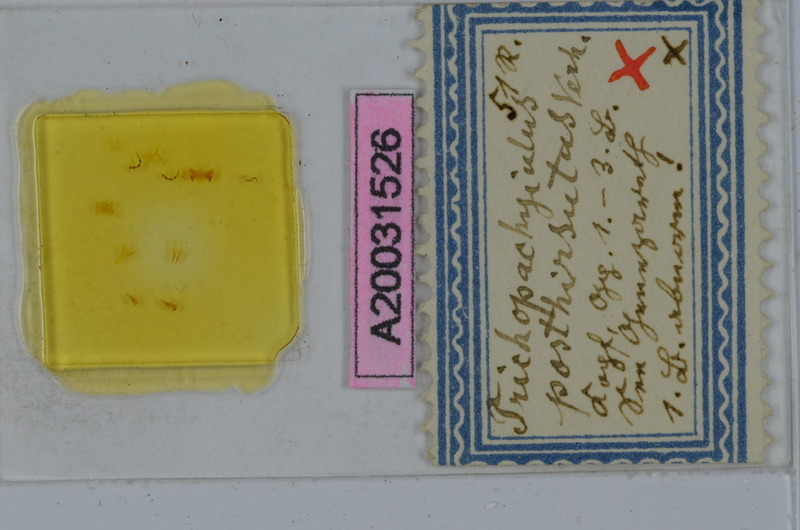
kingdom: Animalia
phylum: Arthropoda
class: Diplopoda
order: Julida
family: Julidae
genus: Syrioiulus
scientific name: Syrioiulus posthirsutus
